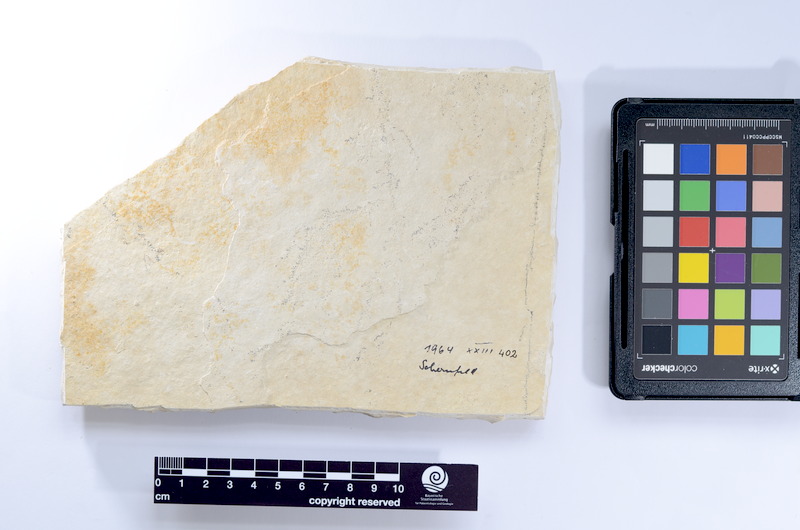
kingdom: Animalia
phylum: Chordata
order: Elopiformes
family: Anaethalionidae
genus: Anaethalion
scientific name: Anaethalion knorri
